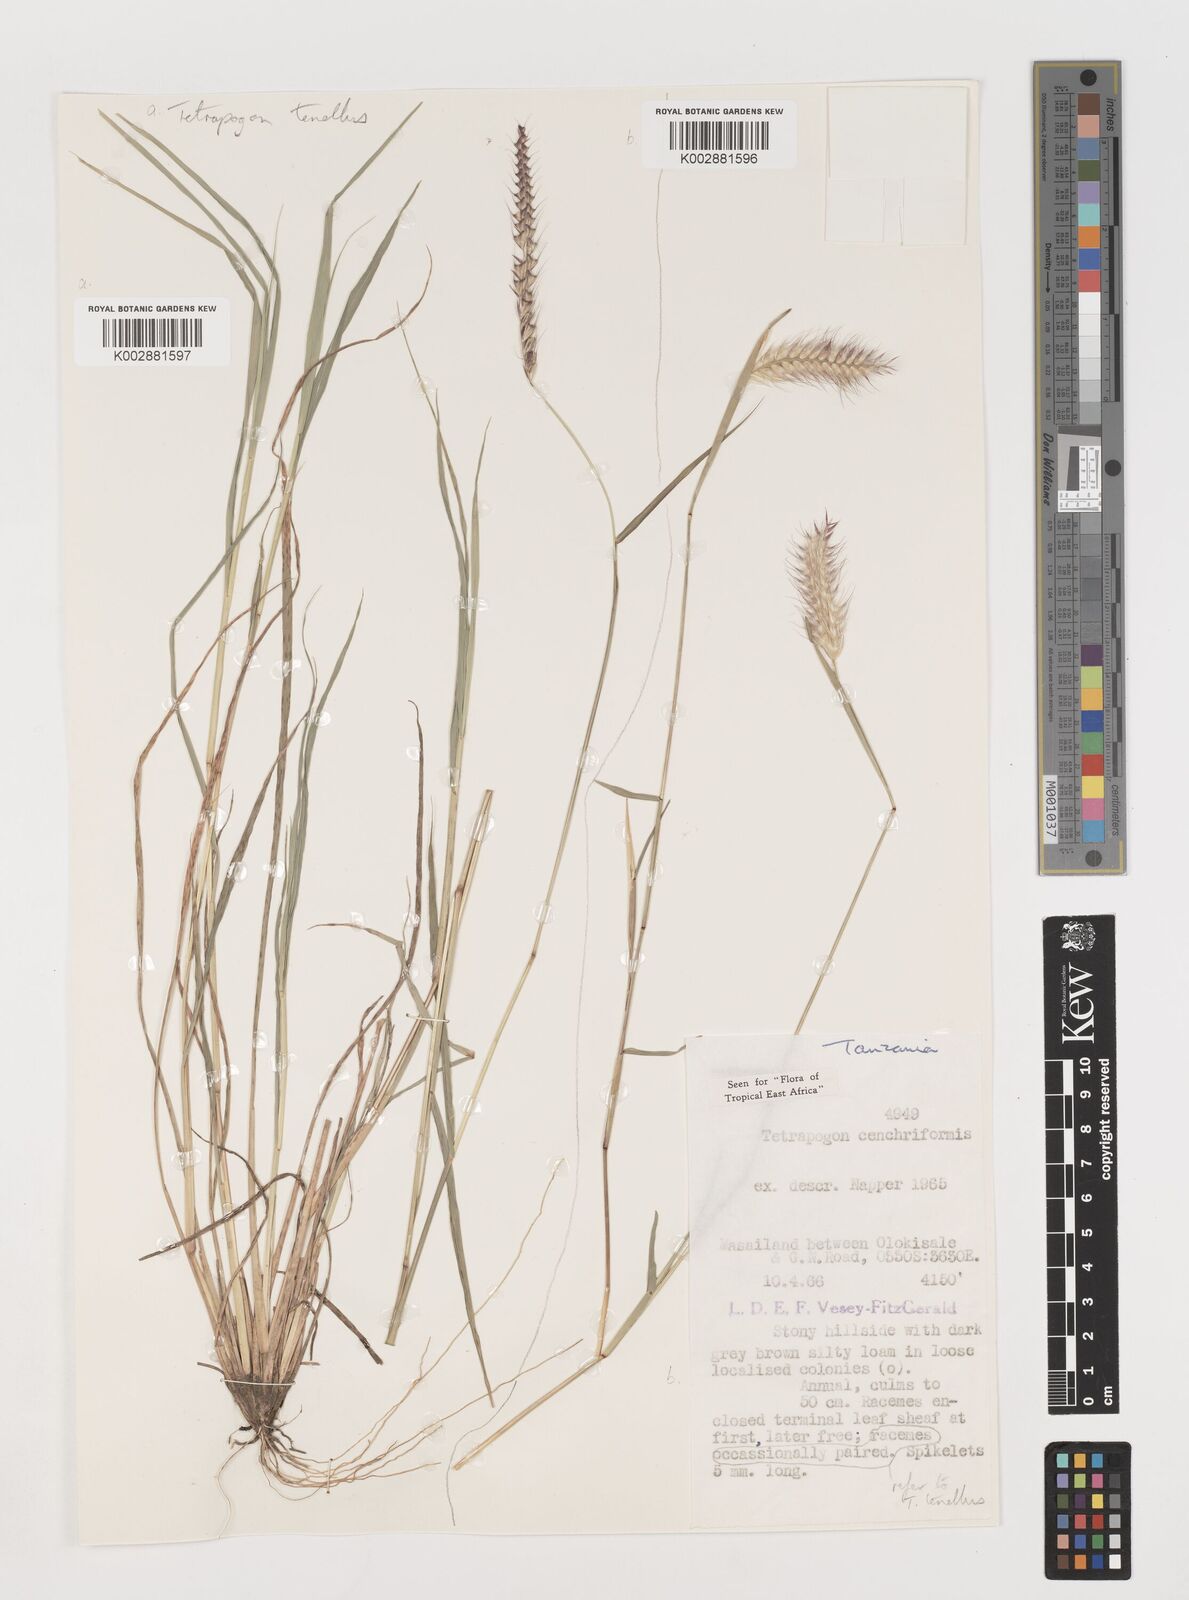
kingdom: Plantae
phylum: Tracheophyta
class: Liliopsida
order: Poales
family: Poaceae
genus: Tetrapogon
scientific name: Tetrapogon cenchriformis
